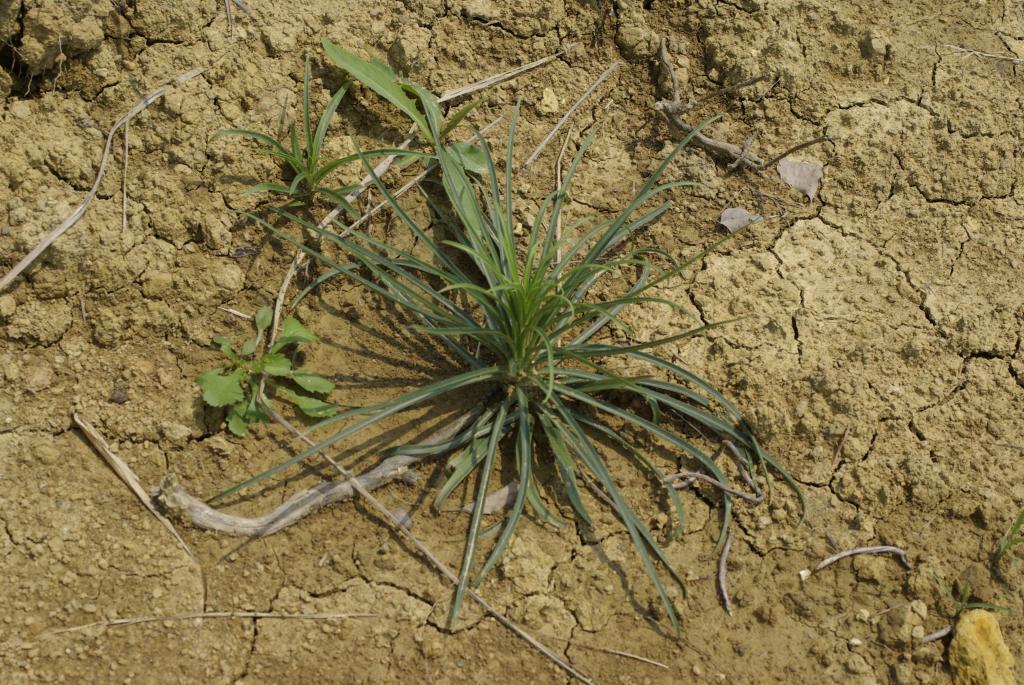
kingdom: Plantae
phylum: Tracheophyta
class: Liliopsida
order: Liliales
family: Liliaceae
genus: Lilium
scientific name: Lilium formosanum
